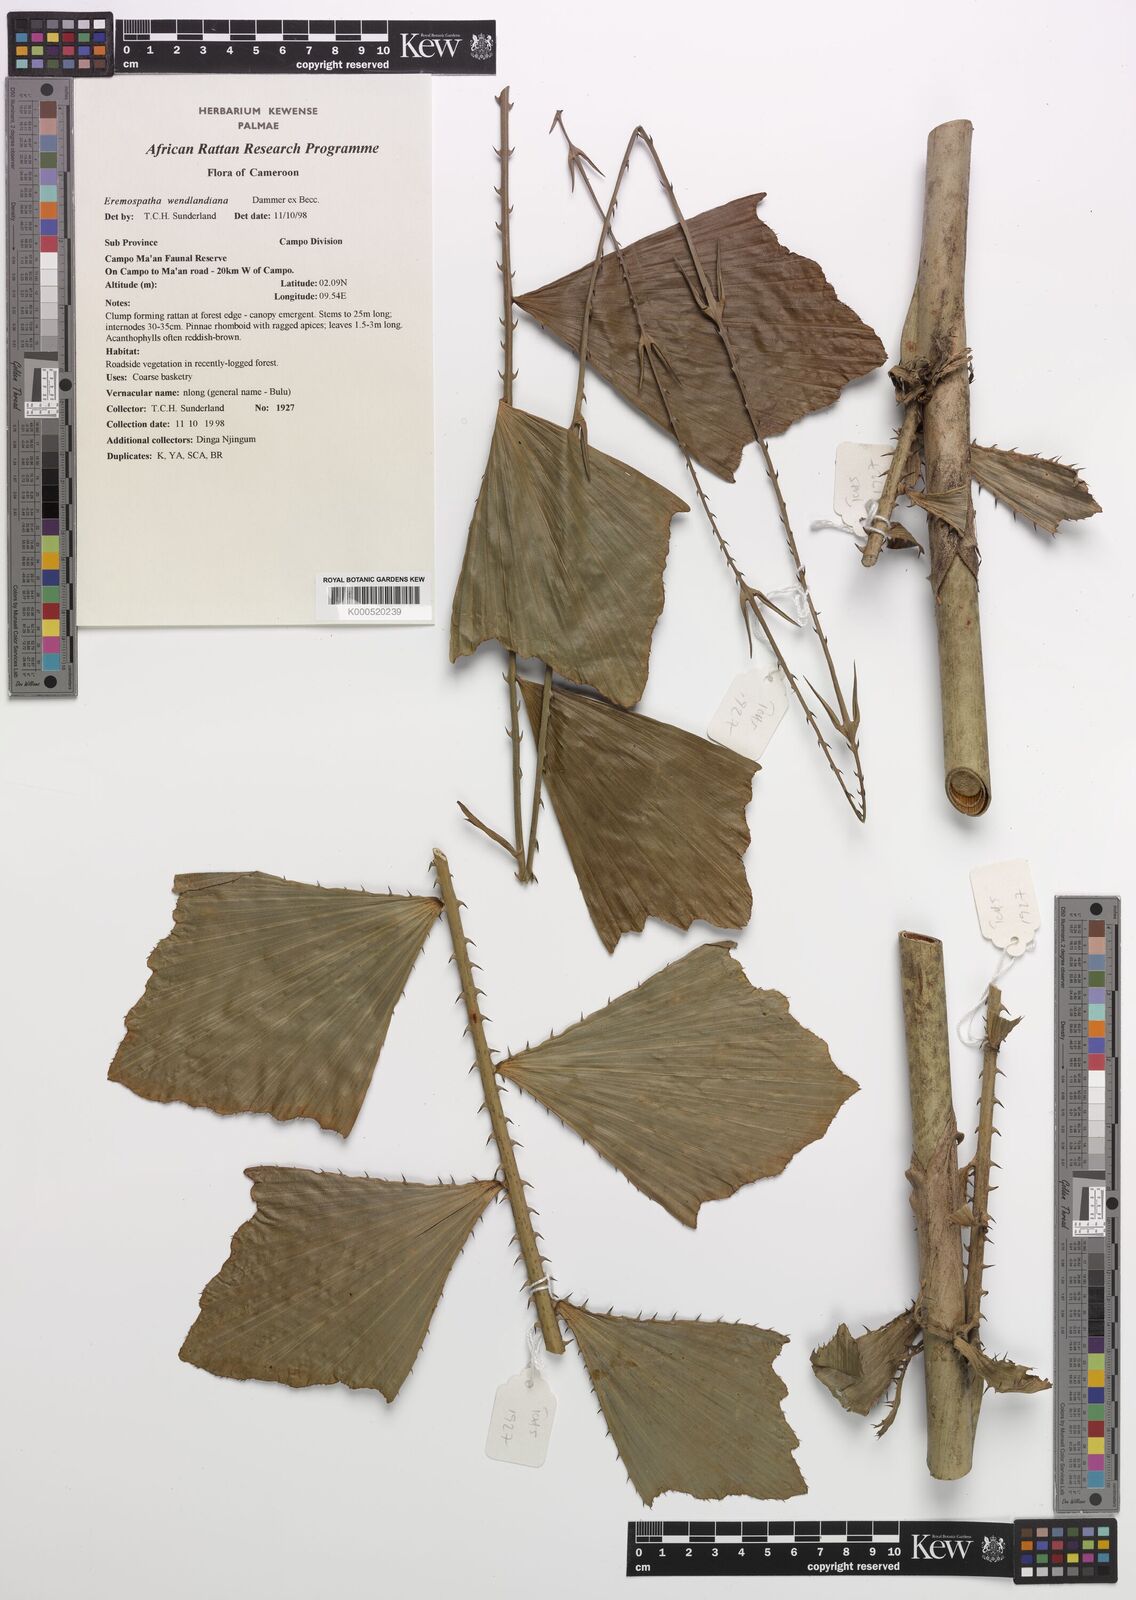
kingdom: Plantae
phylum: Tracheophyta
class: Liliopsida
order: Arecales
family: Arecaceae
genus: Eremospatha
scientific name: Eremospatha wendlandiana
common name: Rattan
